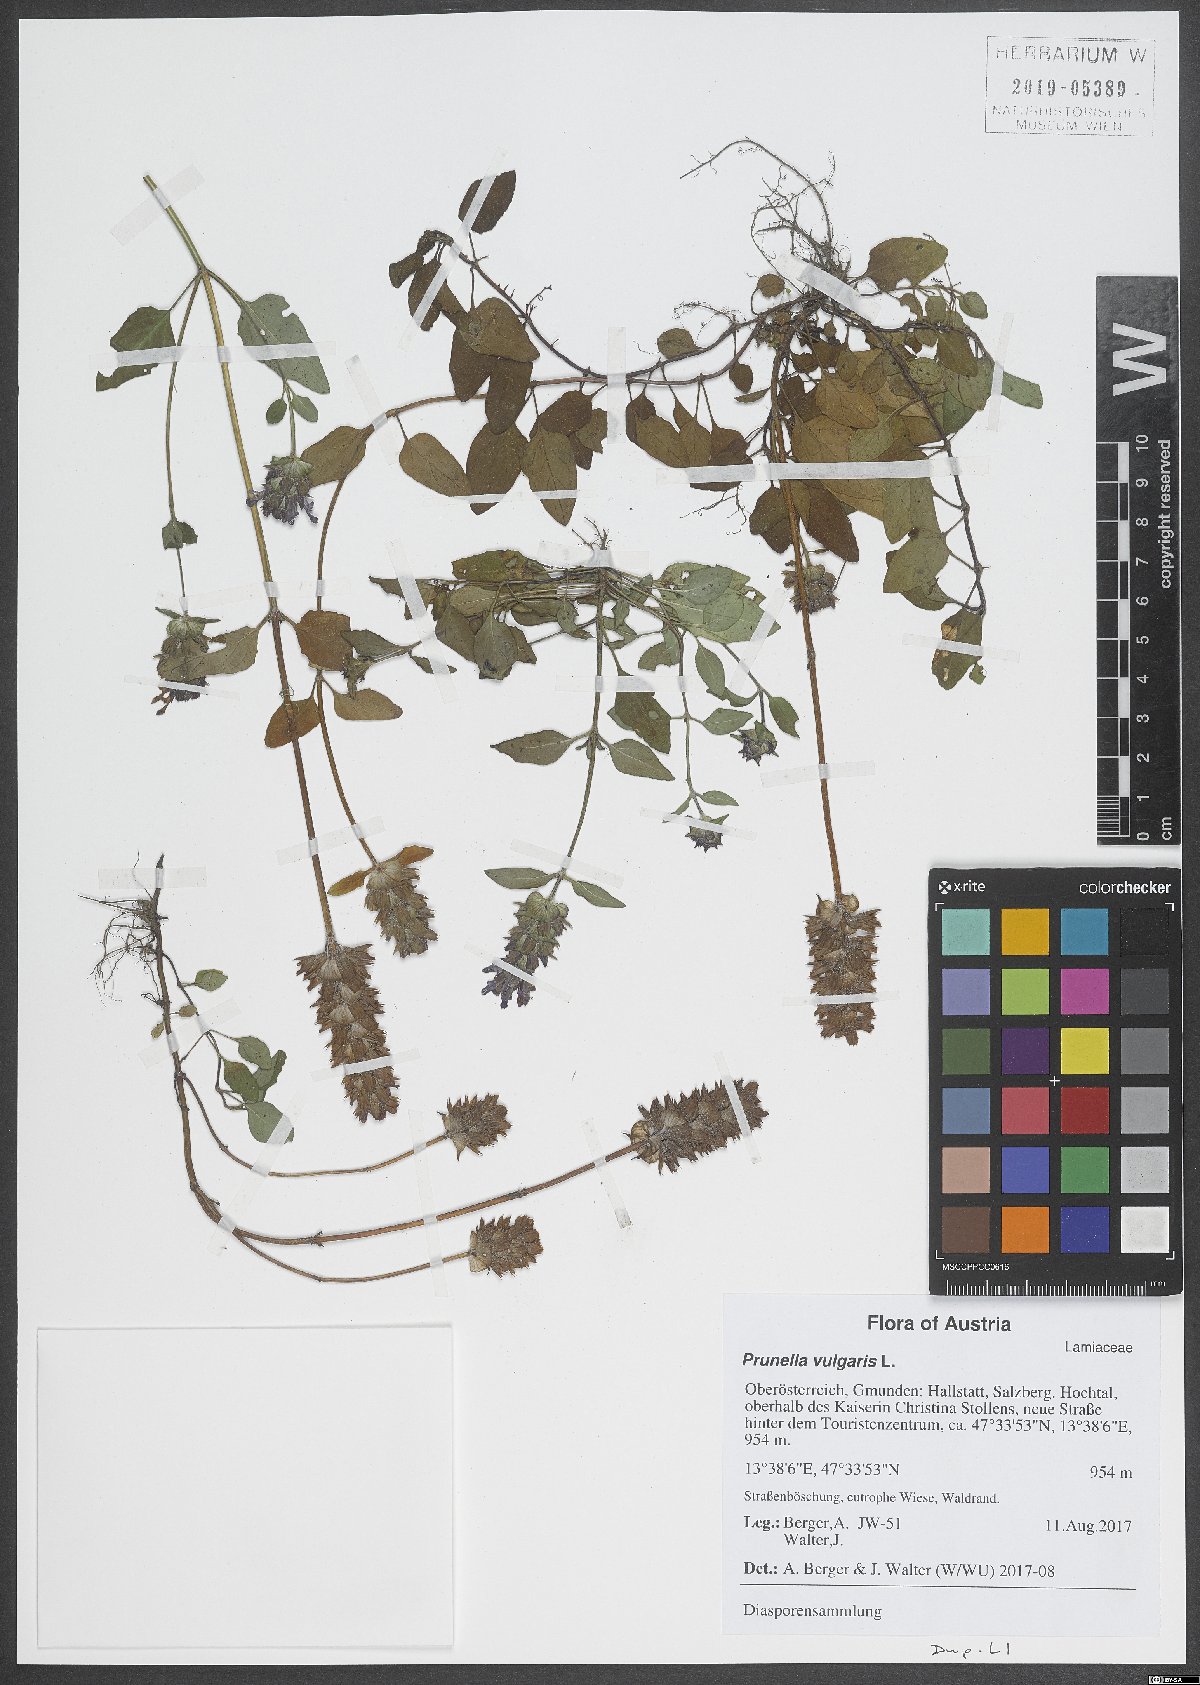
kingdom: Plantae
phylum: Tracheophyta
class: Magnoliopsida
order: Lamiales
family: Lamiaceae
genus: Prunella
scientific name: Prunella vulgaris
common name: Heal-all
